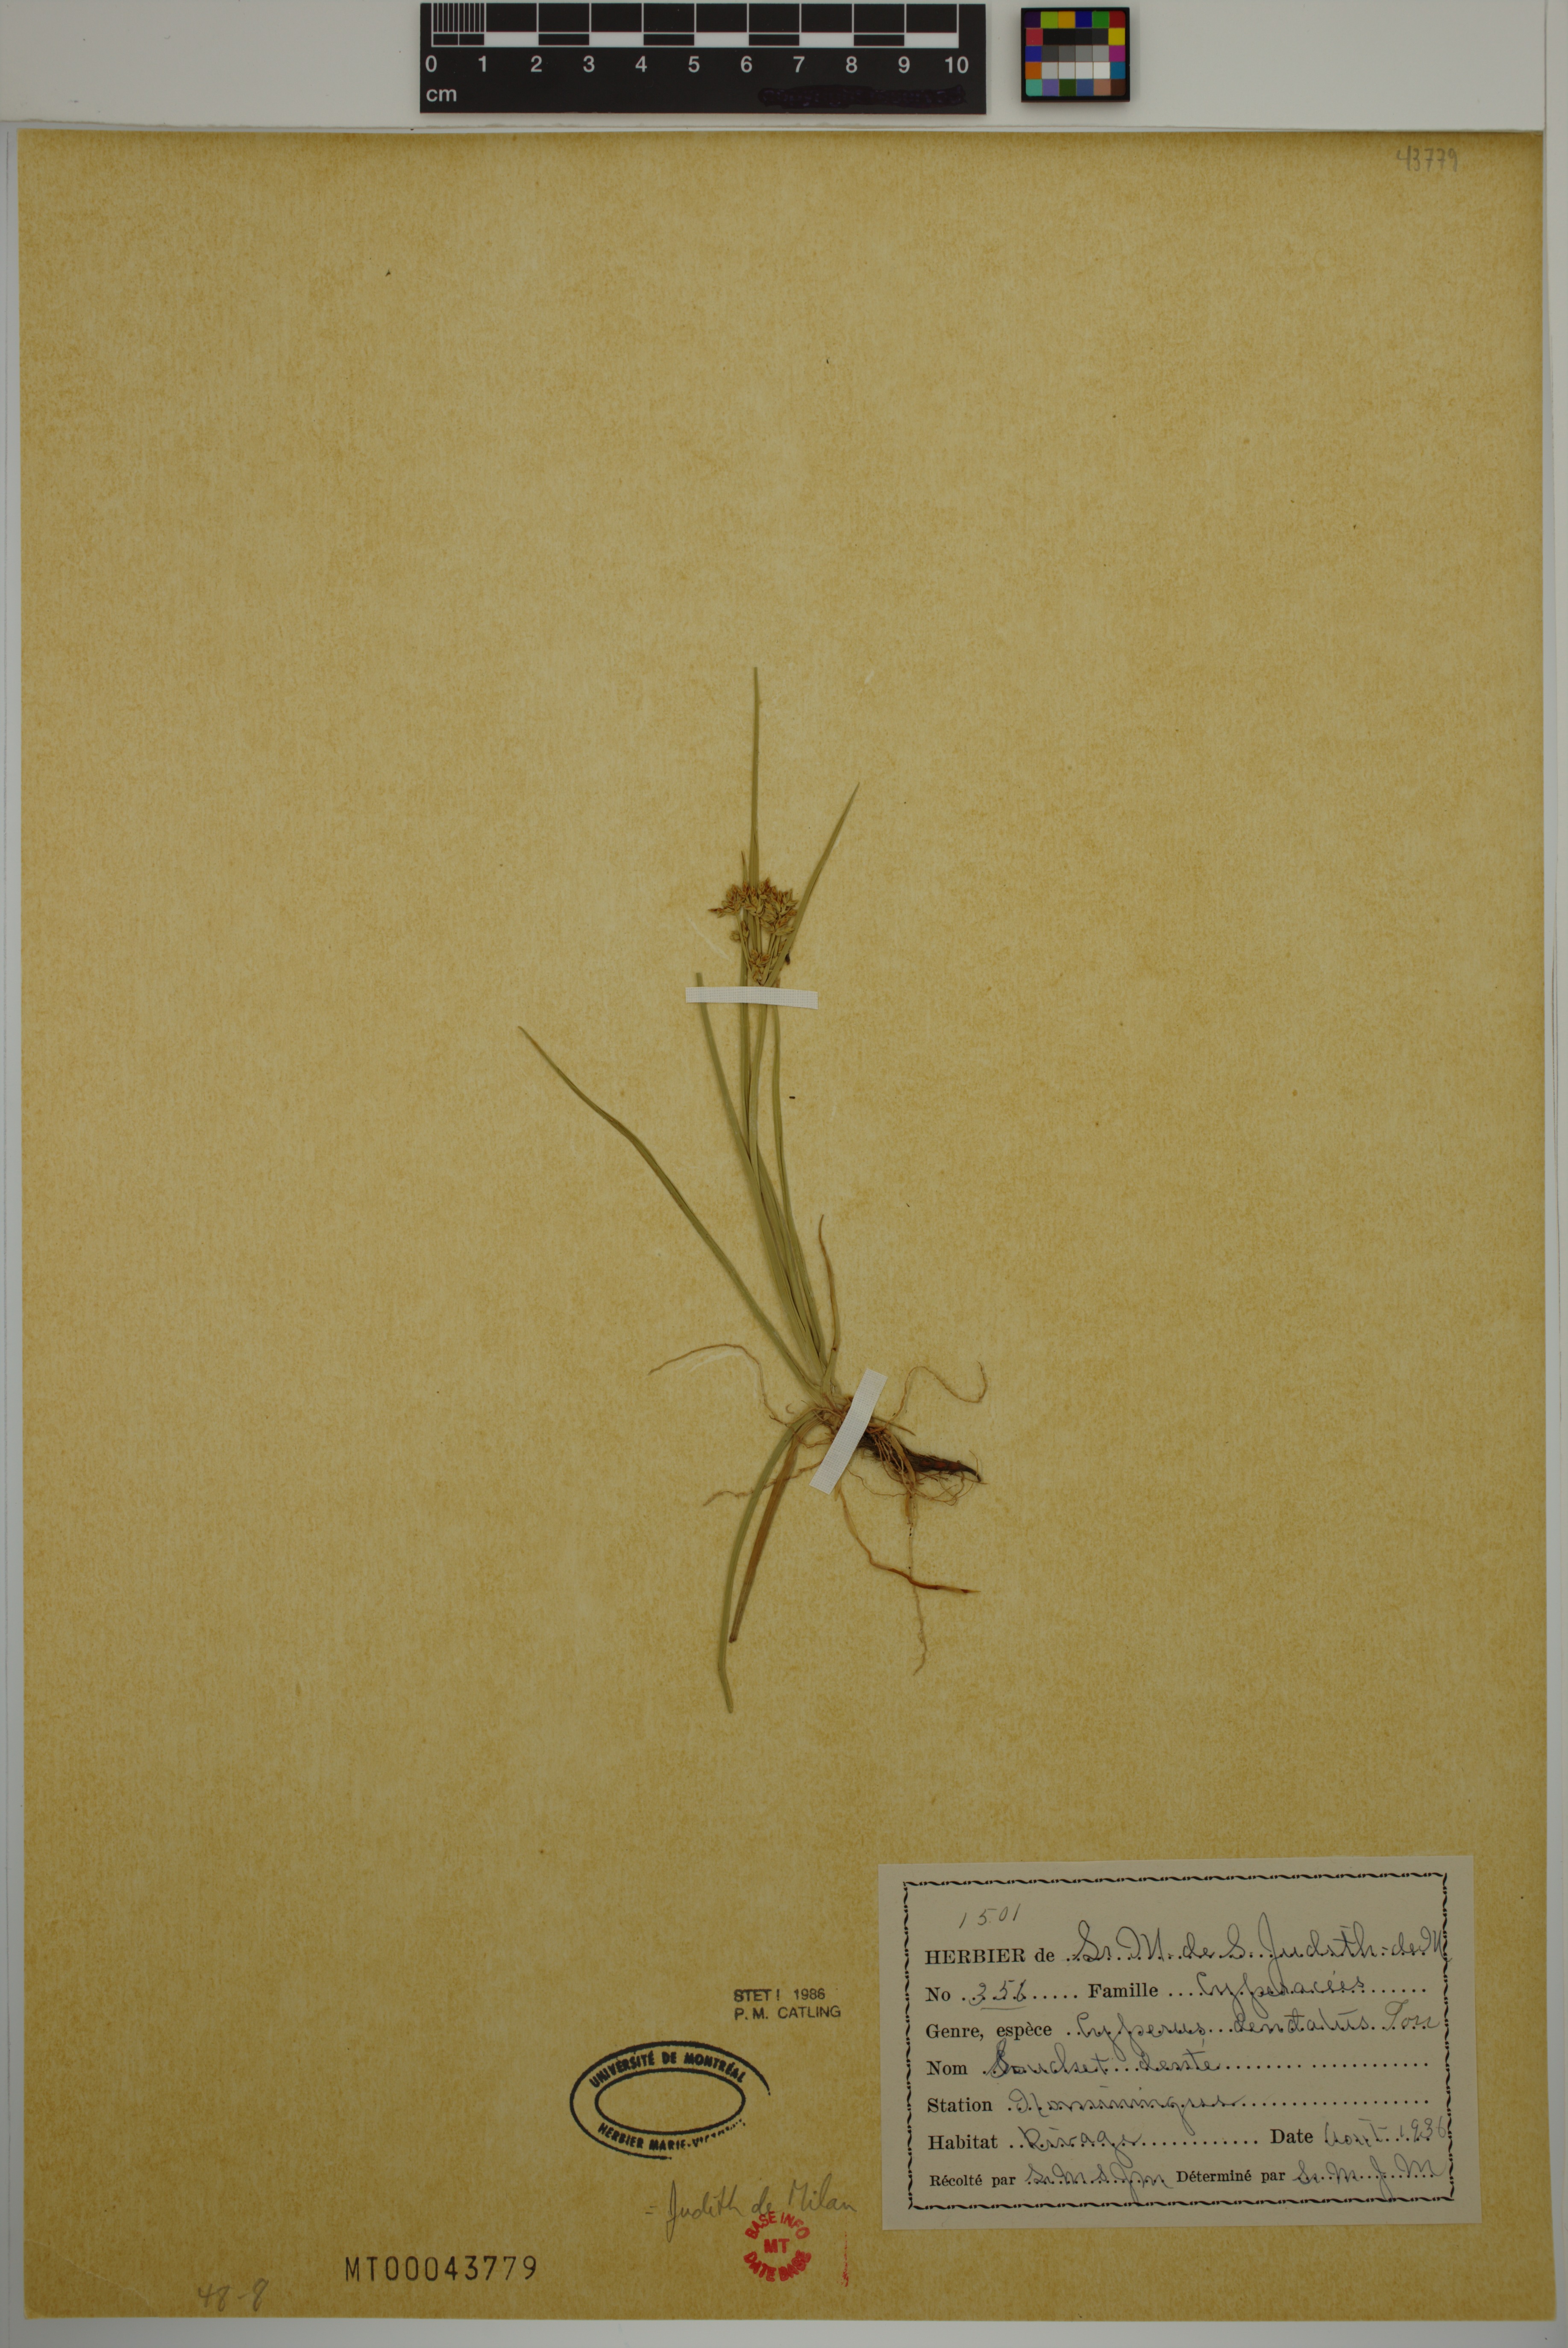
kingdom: Plantae
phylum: Tracheophyta
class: Liliopsida
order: Poales
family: Cyperaceae
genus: Cyperus
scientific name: Cyperus dentatus
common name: Dentate umbrella sedge
